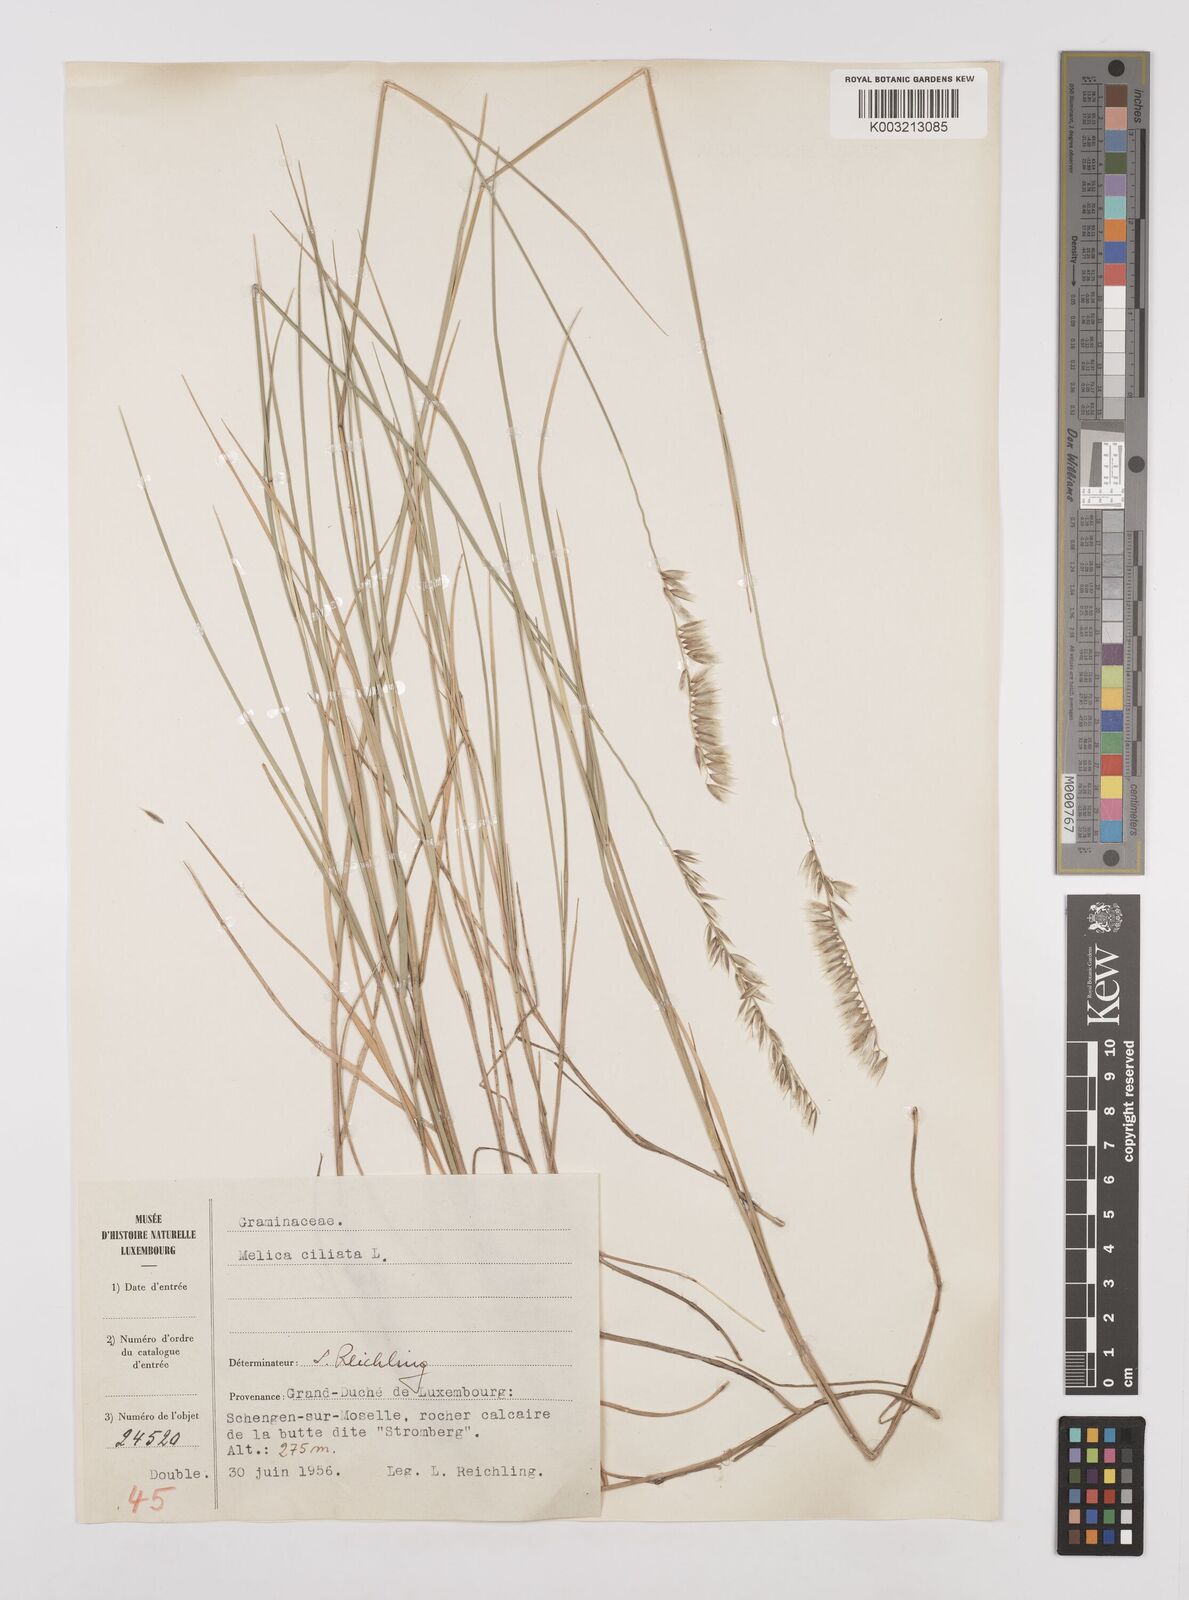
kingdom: Plantae
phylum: Tracheophyta
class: Liliopsida
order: Poales
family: Poaceae
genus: Melica
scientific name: Melica ciliata
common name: Hairy melicgrass
